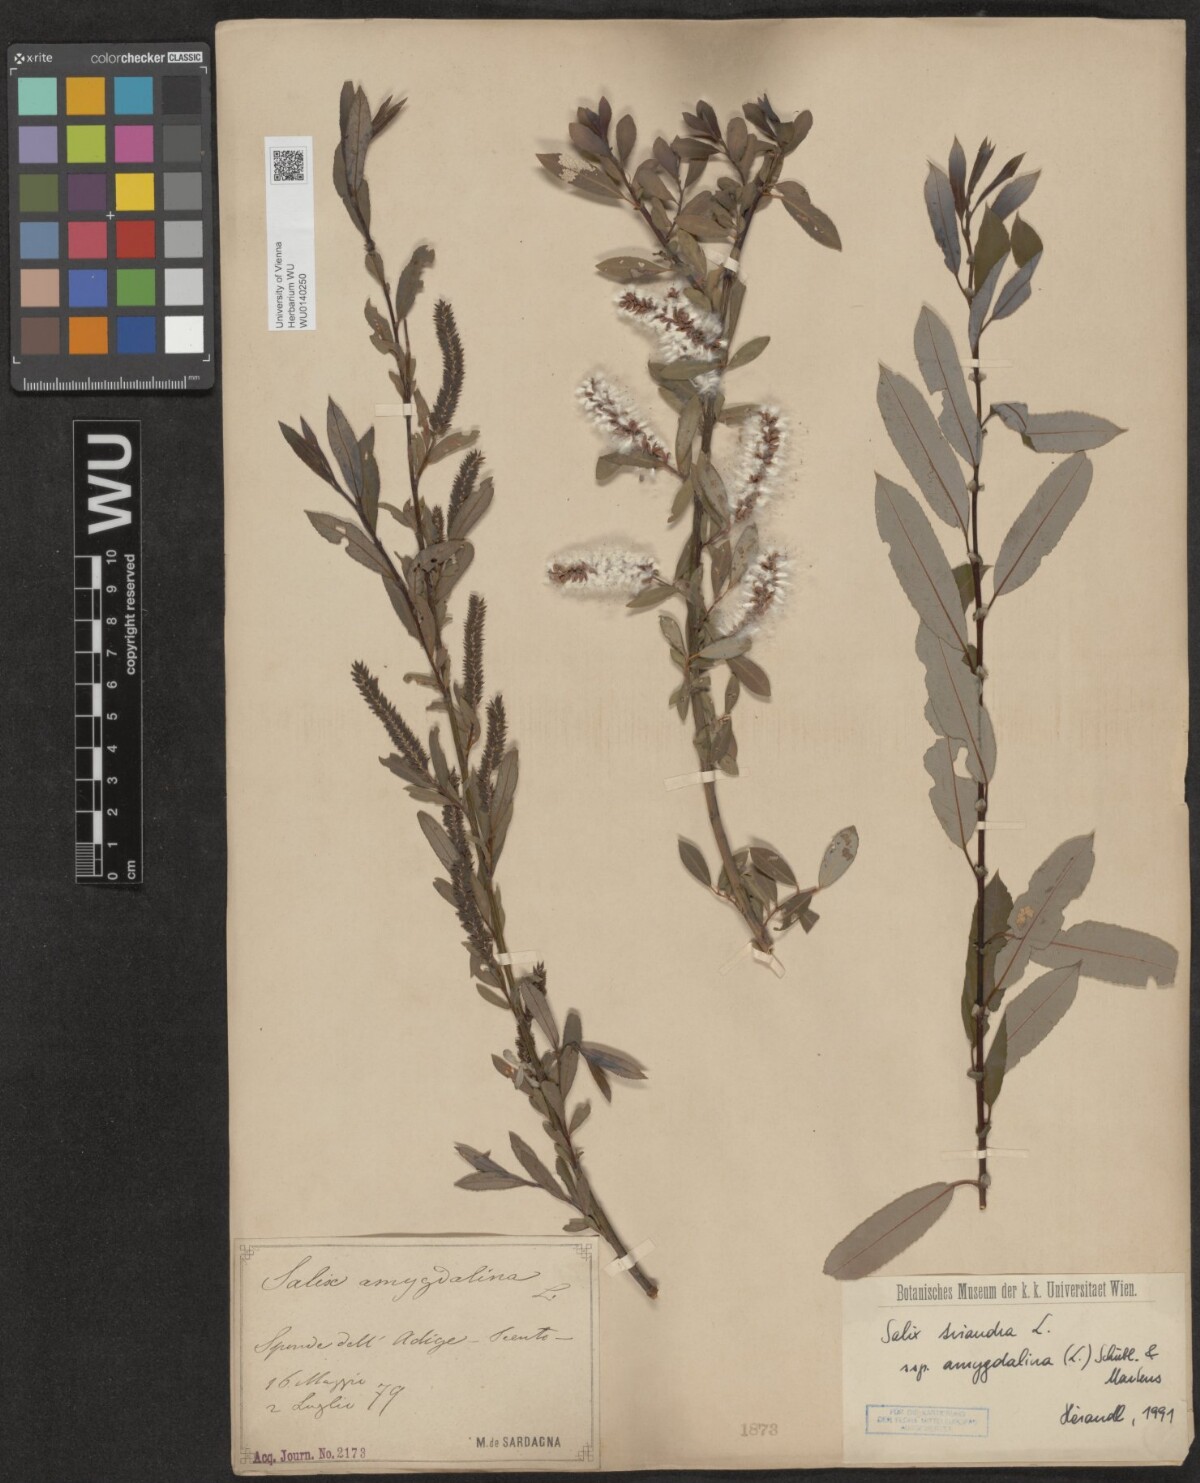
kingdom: Plantae
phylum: Tracheophyta
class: Magnoliopsida
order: Malpighiales
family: Salicaceae
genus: Salix
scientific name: Salix triandra
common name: Almond willow
